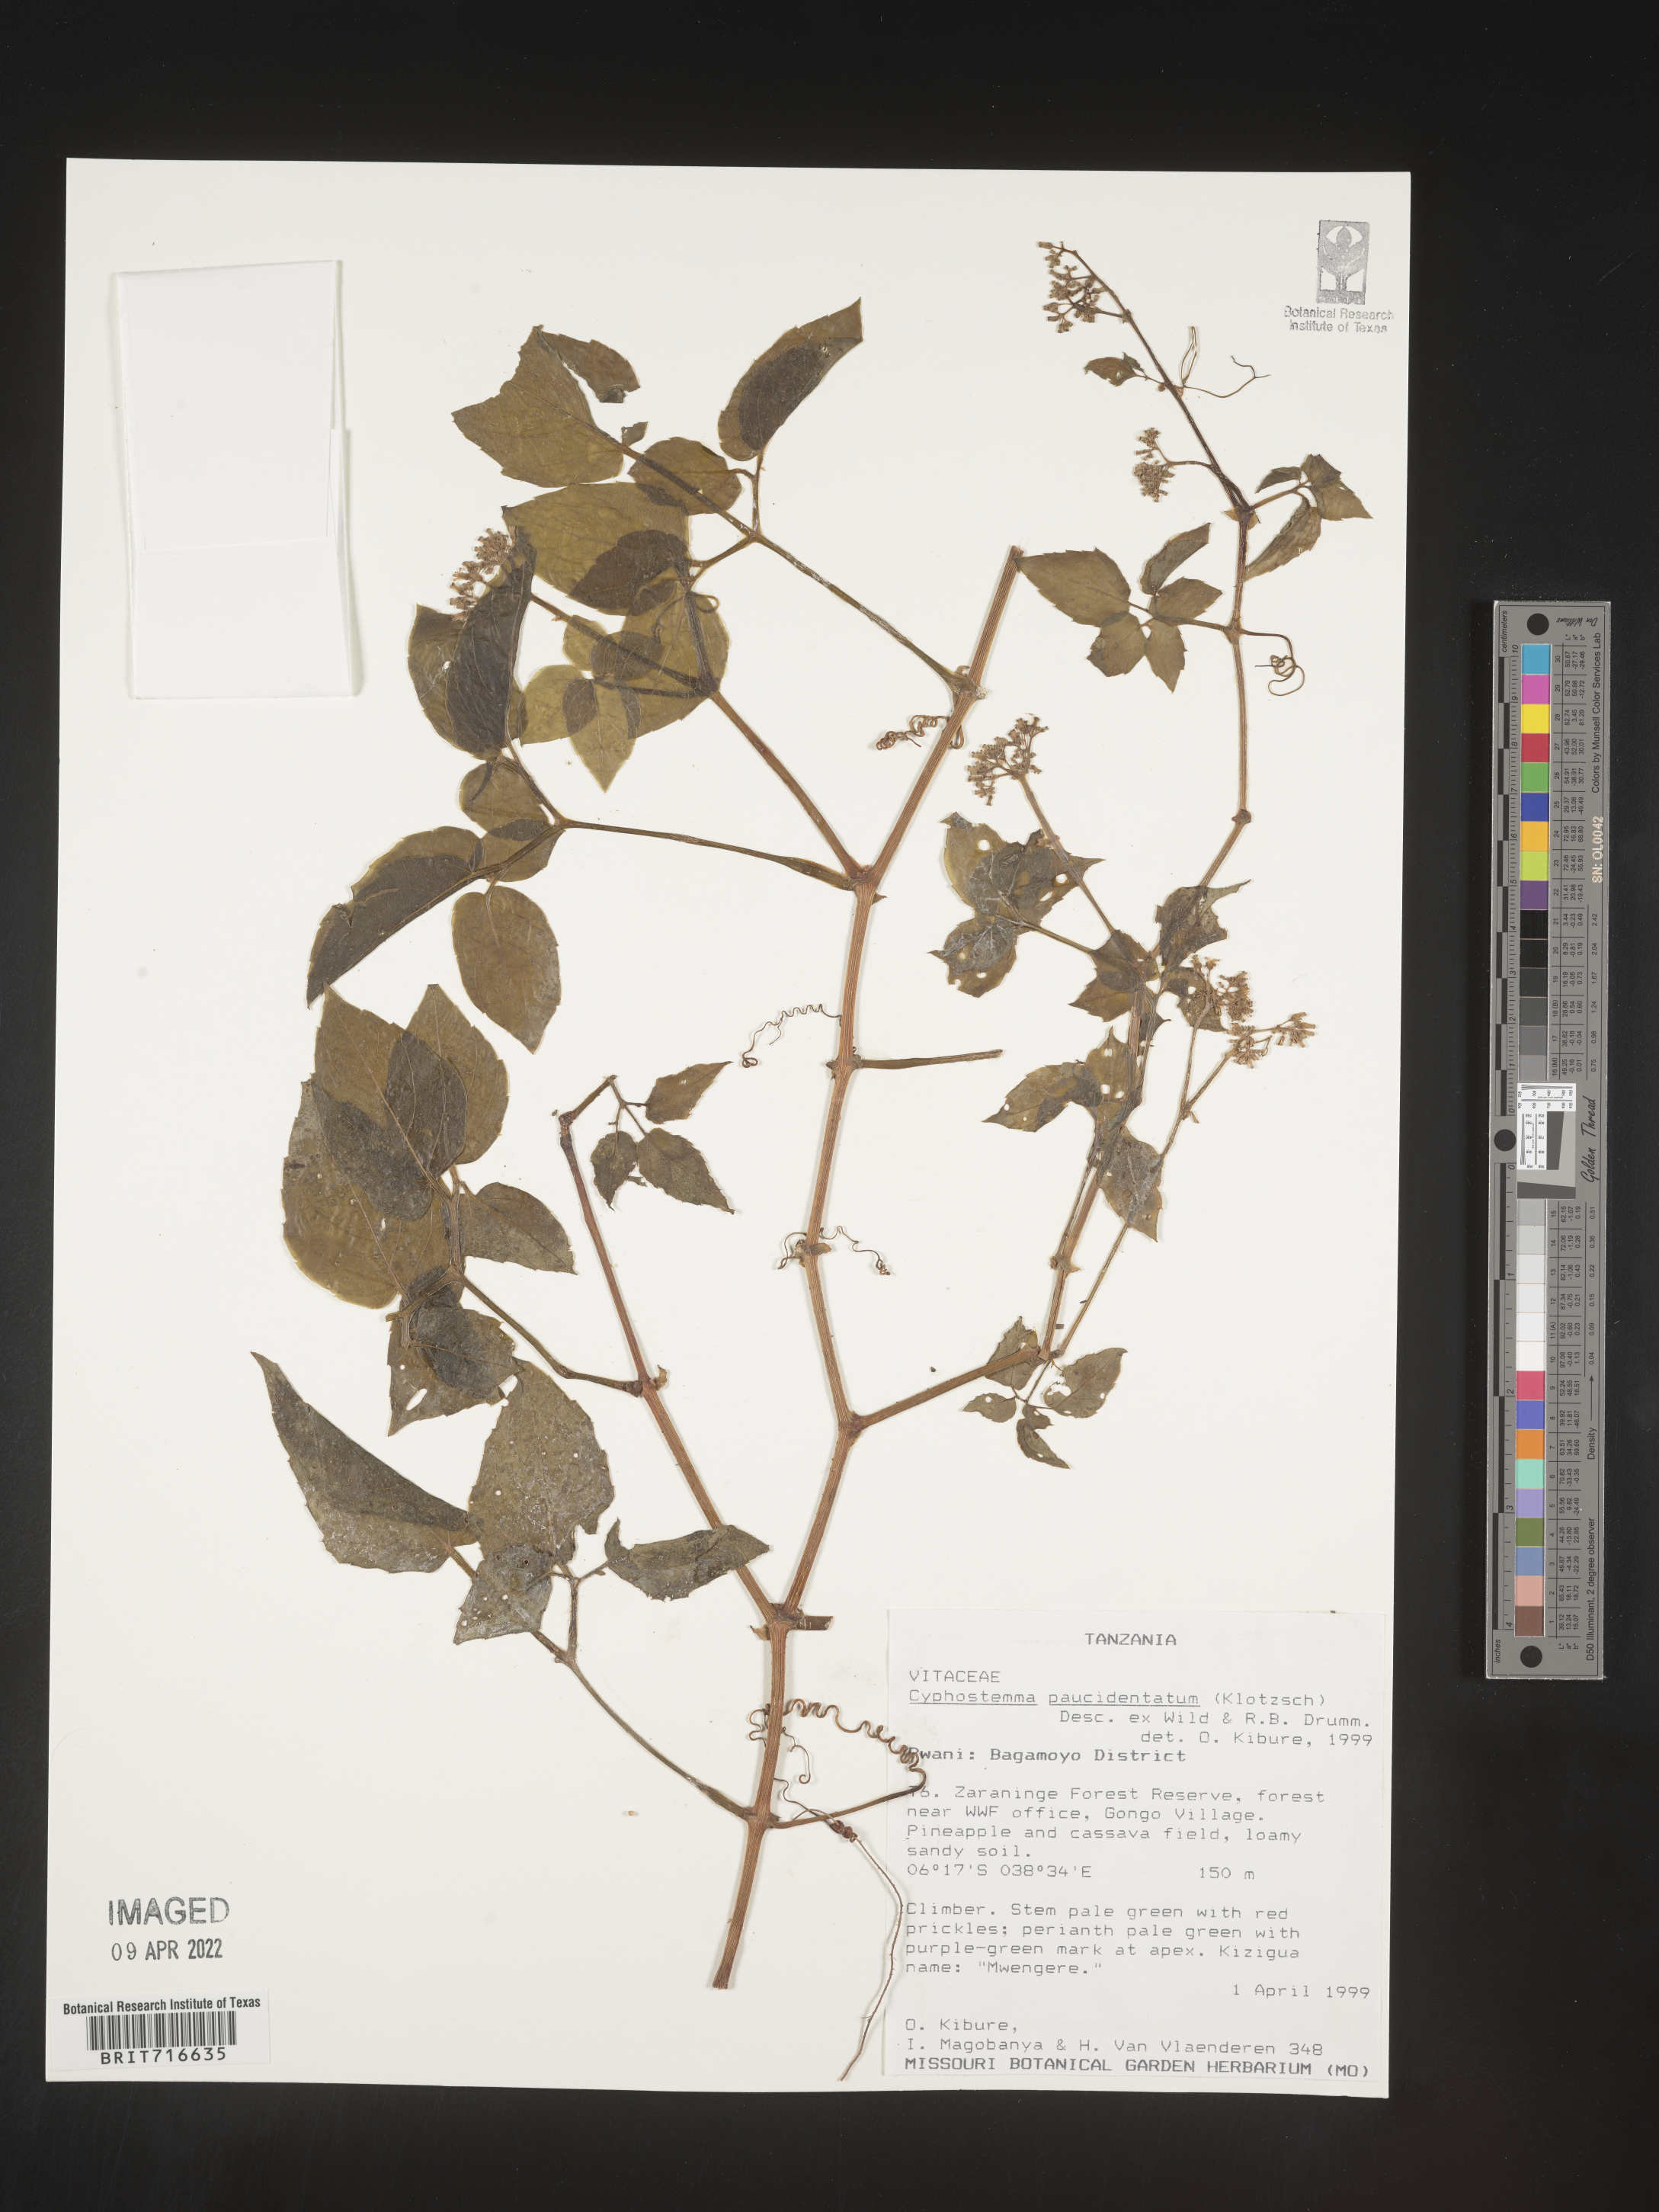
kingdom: Plantae
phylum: Tracheophyta
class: Magnoliopsida
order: Vitales
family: Vitaceae
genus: Cyphostemma
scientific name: Cyphostemma
